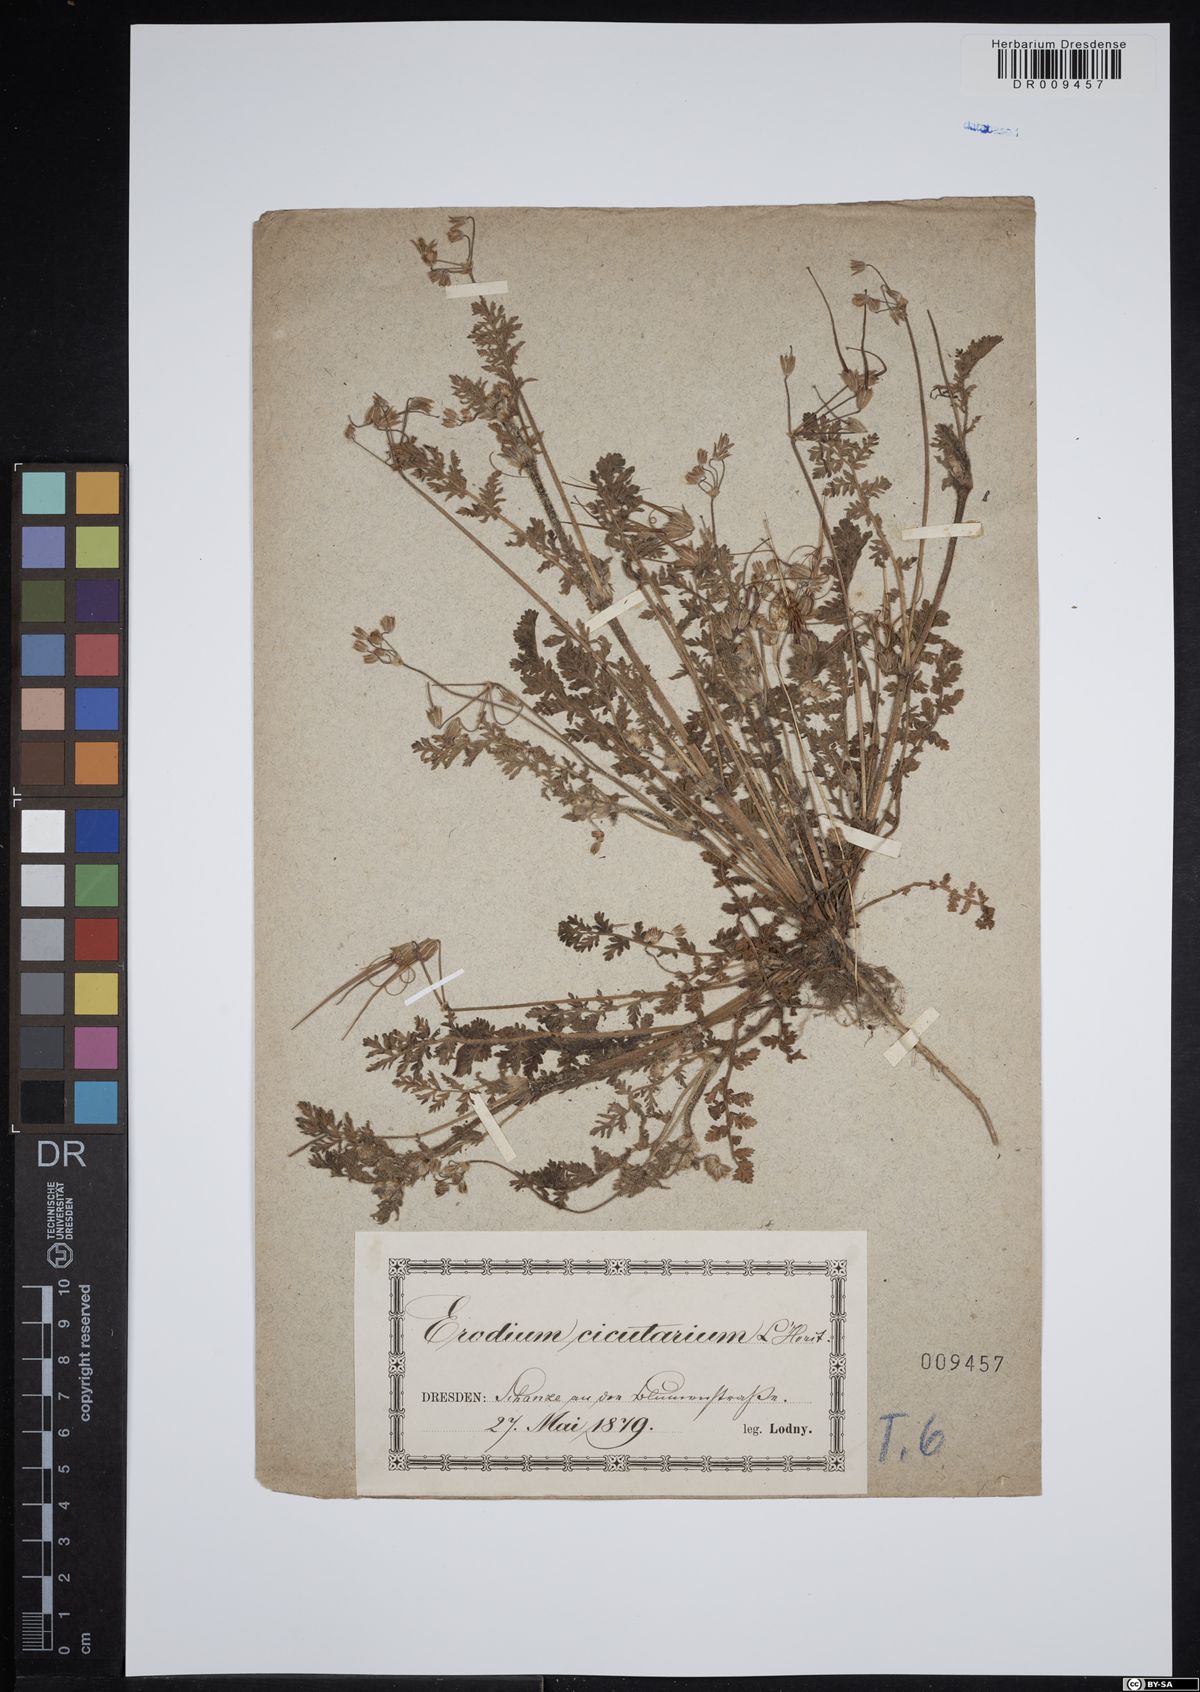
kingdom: Plantae
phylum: Tracheophyta
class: Magnoliopsida
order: Geraniales
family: Geraniaceae
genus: Erodium
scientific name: Erodium cicutarium
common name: Common stork's-bill
